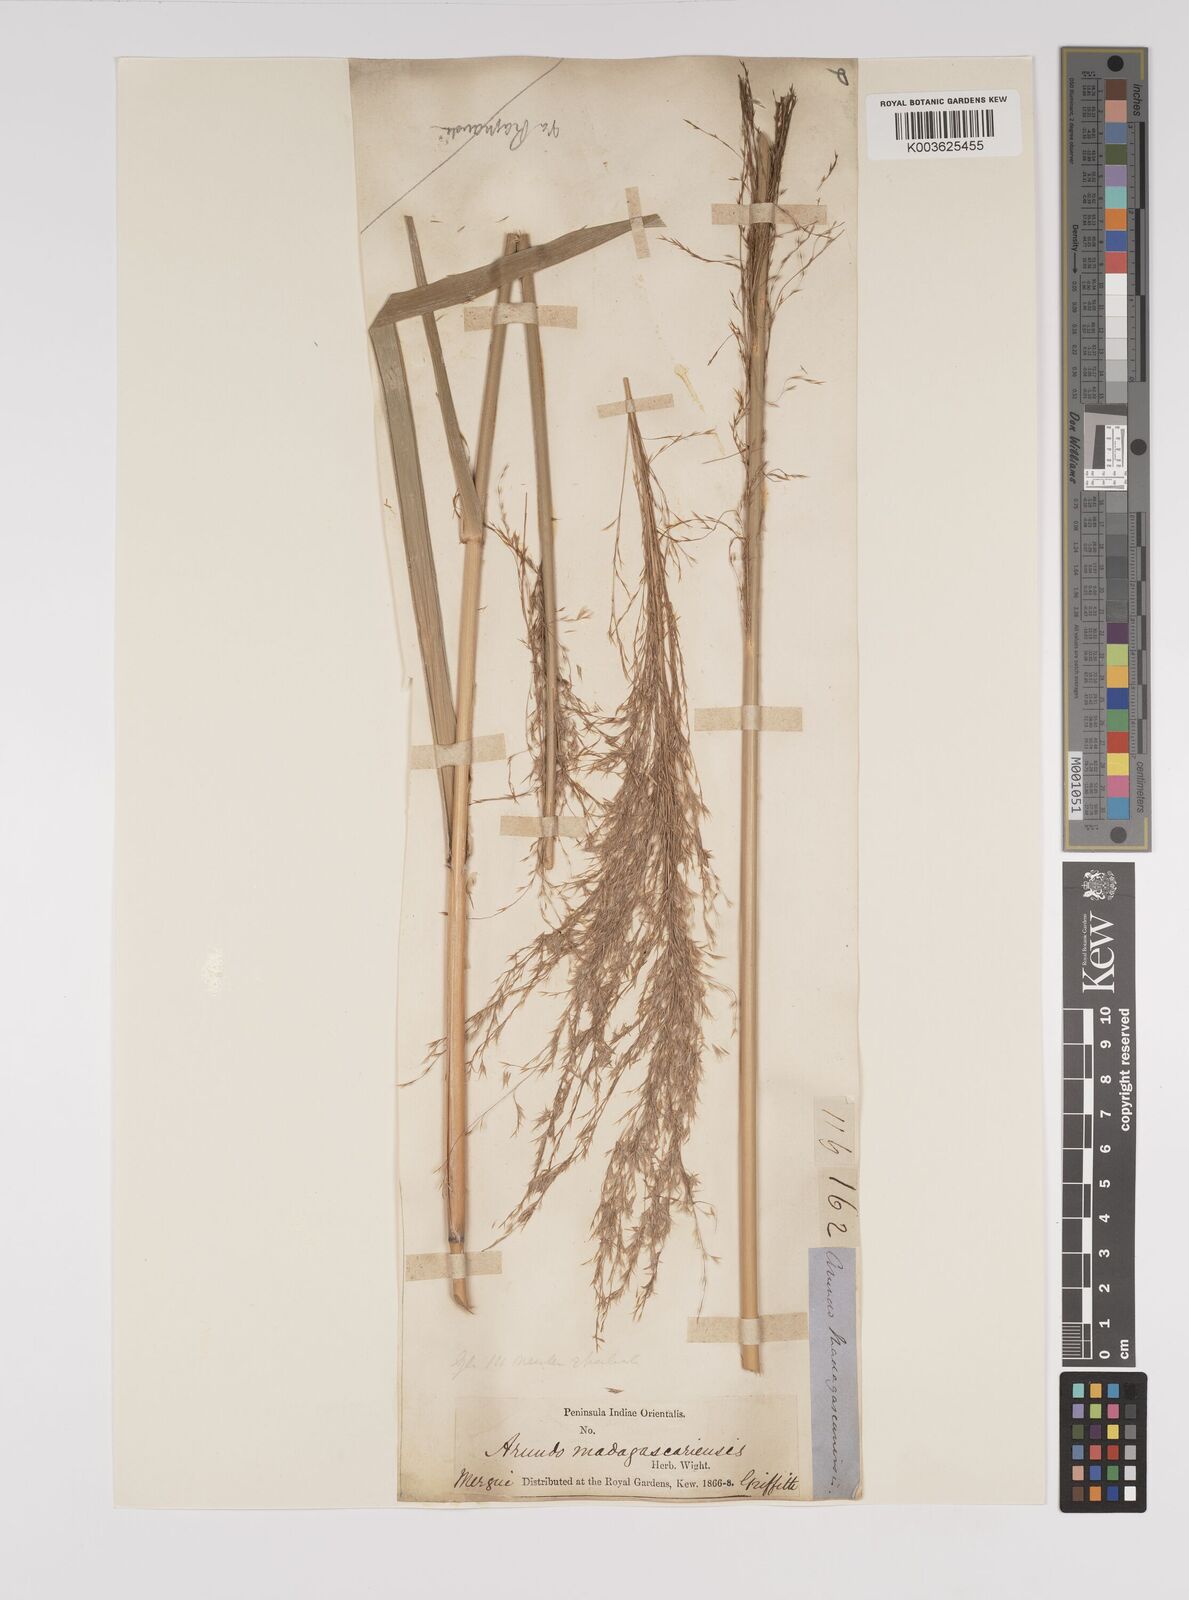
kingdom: Plantae
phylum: Tracheophyta
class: Liliopsida
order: Poales
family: Poaceae
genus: Neyraudia
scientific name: Neyraudia reynaudiana
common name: Silkreed
